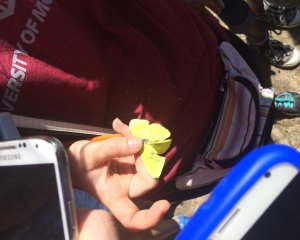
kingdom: Animalia
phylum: Arthropoda
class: Insecta
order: Lepidoptera
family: Pieridae
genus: Phoebis
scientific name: Phoebis sennae
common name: Cloudless Sulphur
